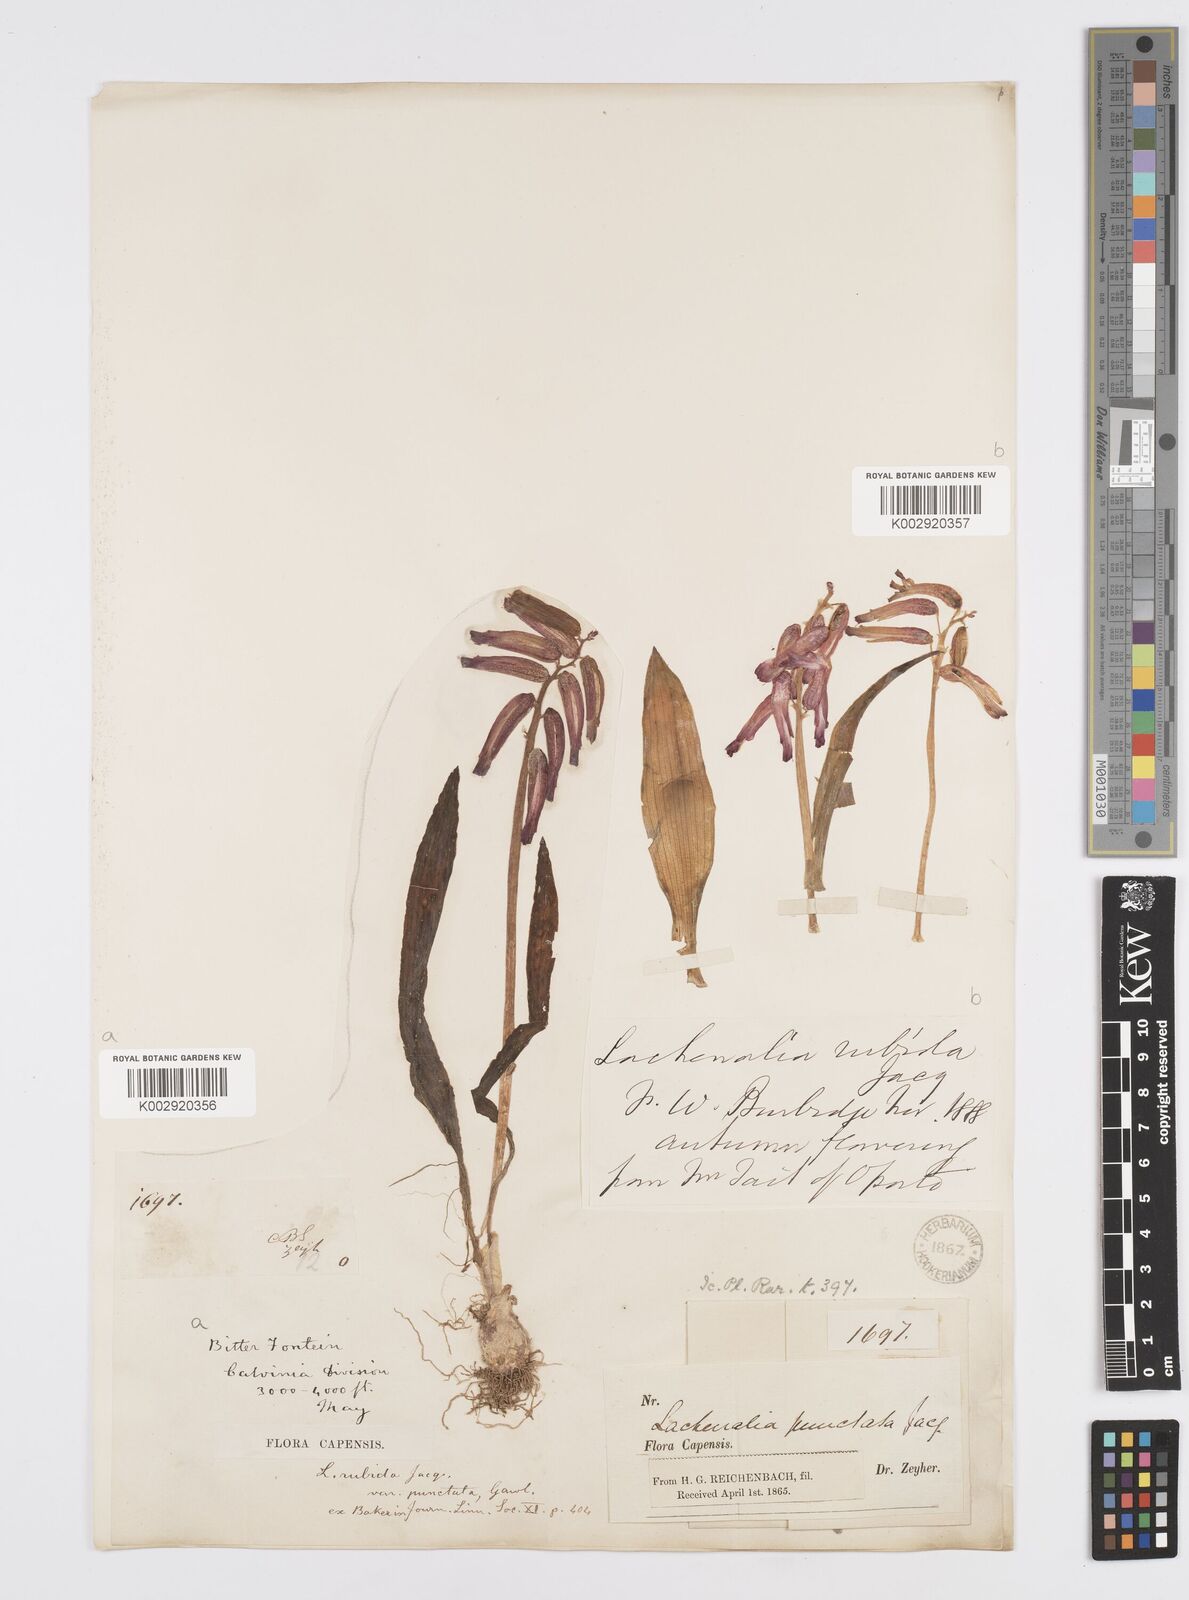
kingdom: Plantae
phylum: Tracheophyta
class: Liliopsida
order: Asparagales
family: Asparagaceae
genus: Lachenalia
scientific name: Lachenalia punctata
